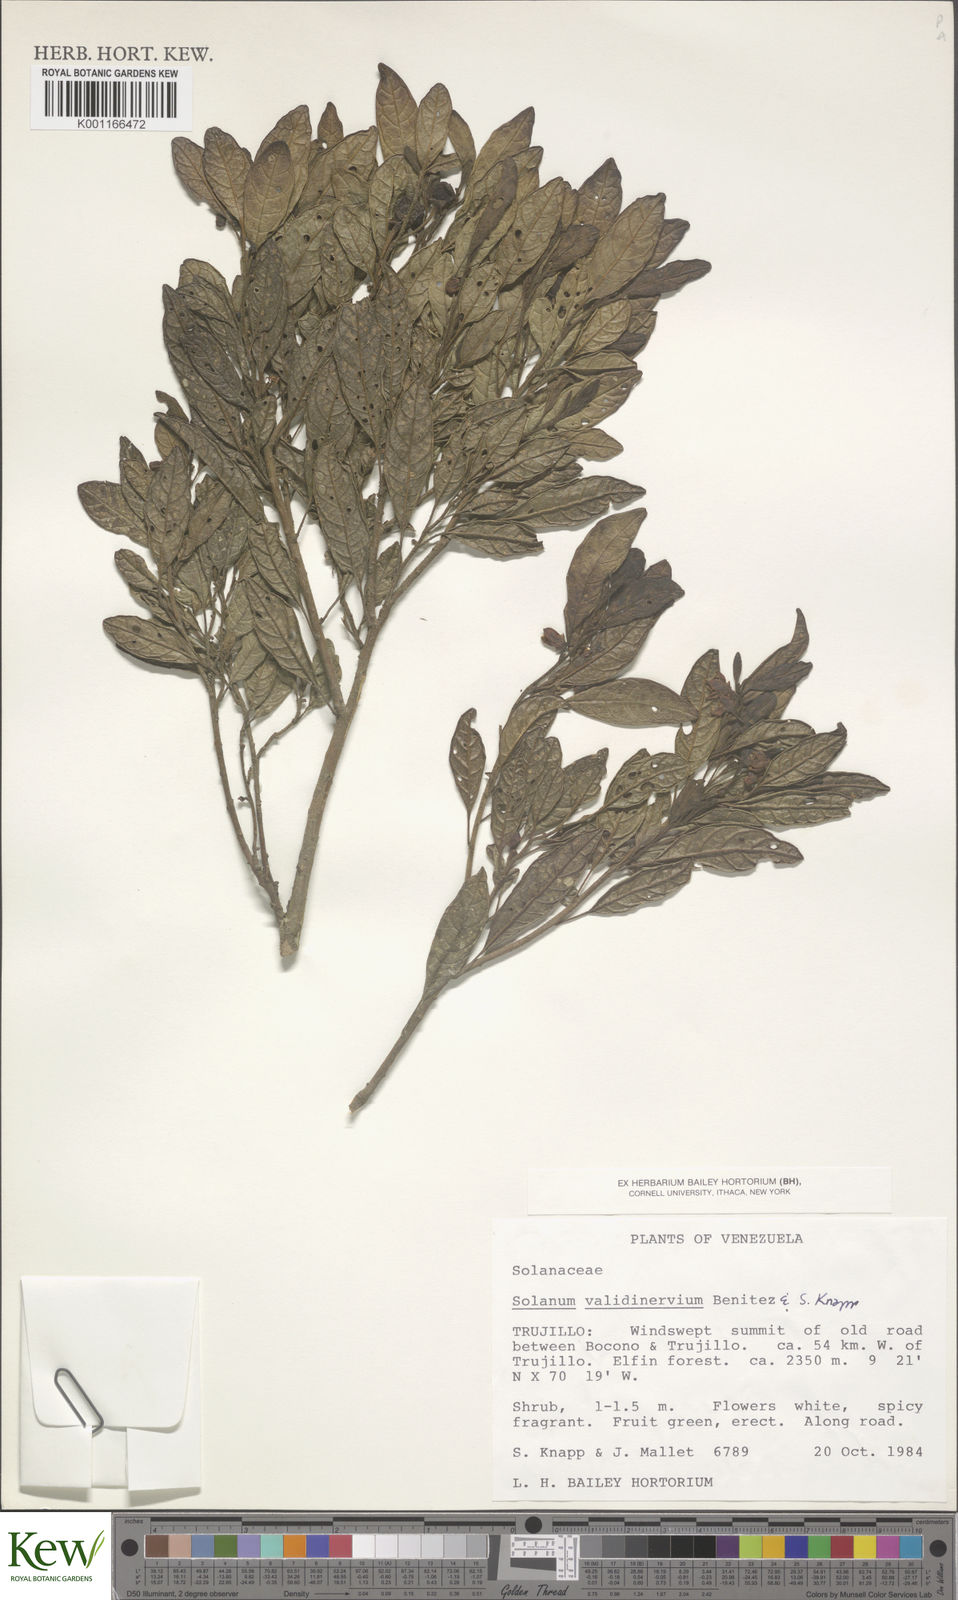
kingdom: Plantae
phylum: Tracheophyta
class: Magnoliopsida
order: Solanales
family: Solanaceae
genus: Solanum
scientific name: Solanum
